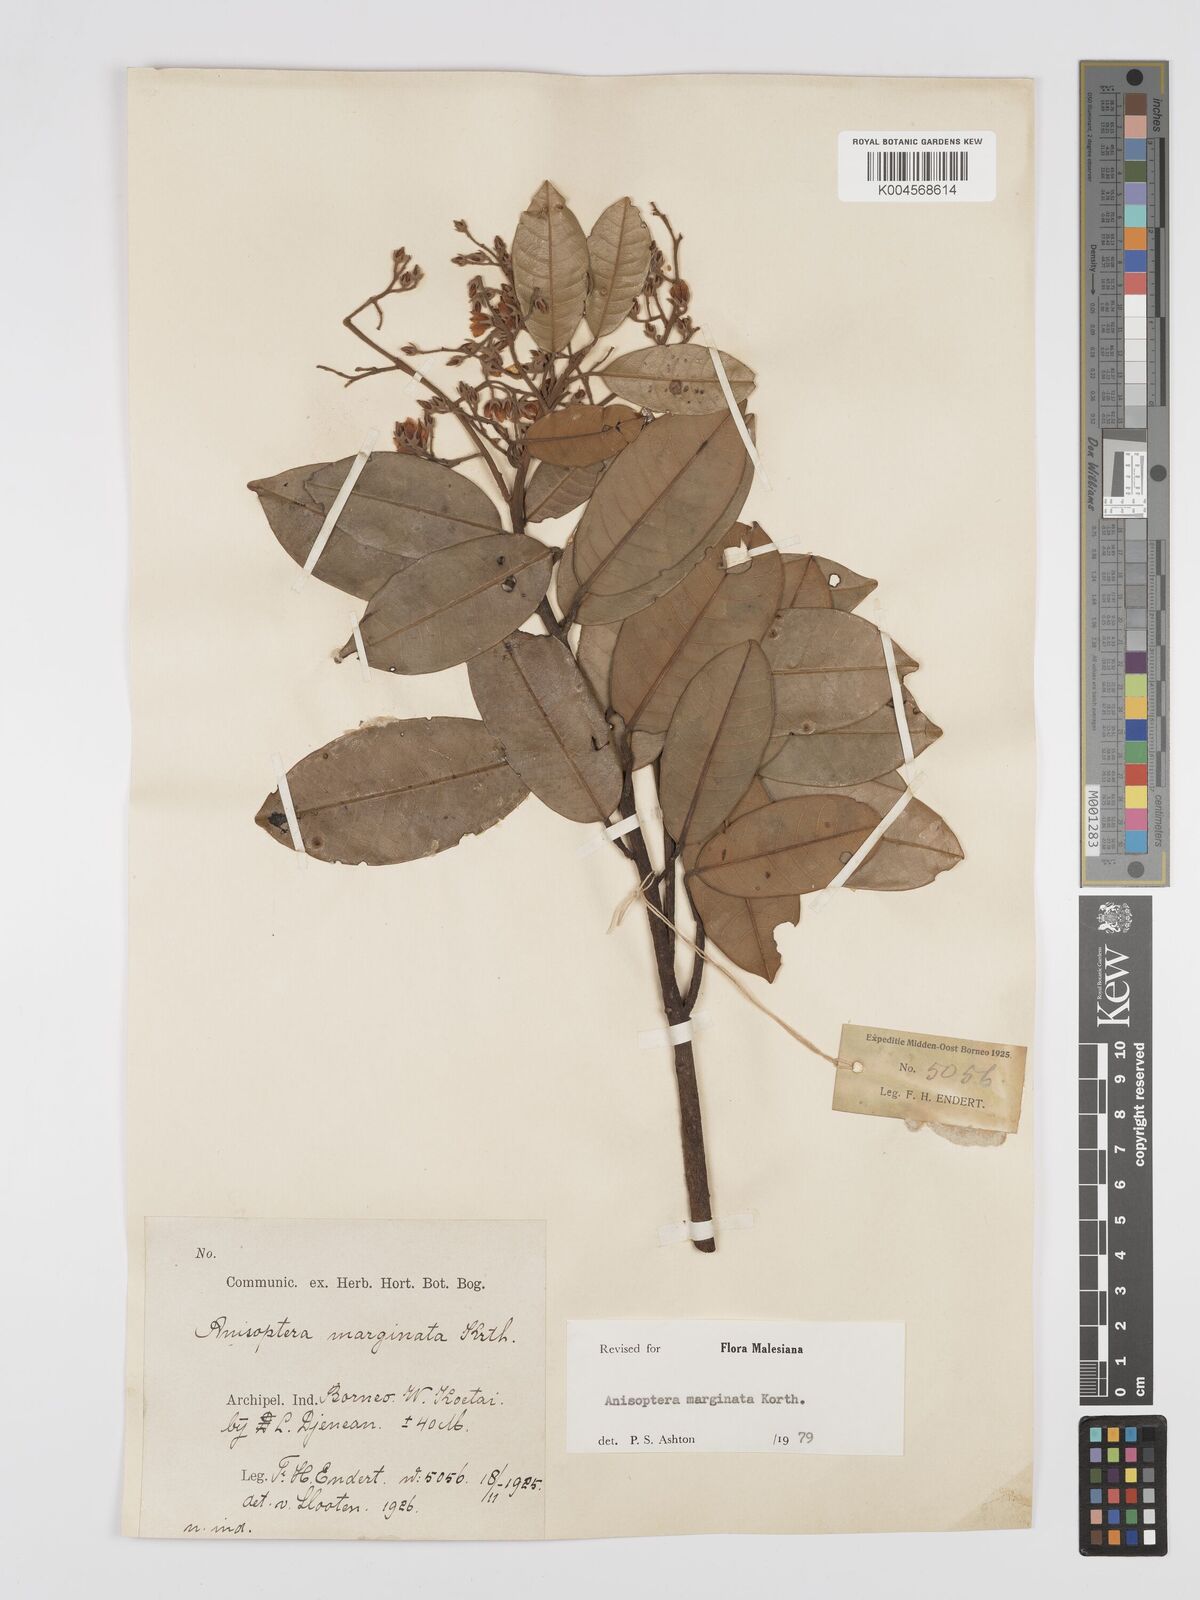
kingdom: Plantae
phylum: Tracheophyta
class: Magnoliopsida
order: Malvales
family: Dipterocarpaceae
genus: Anisoptera
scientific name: Anisoptera marginata
